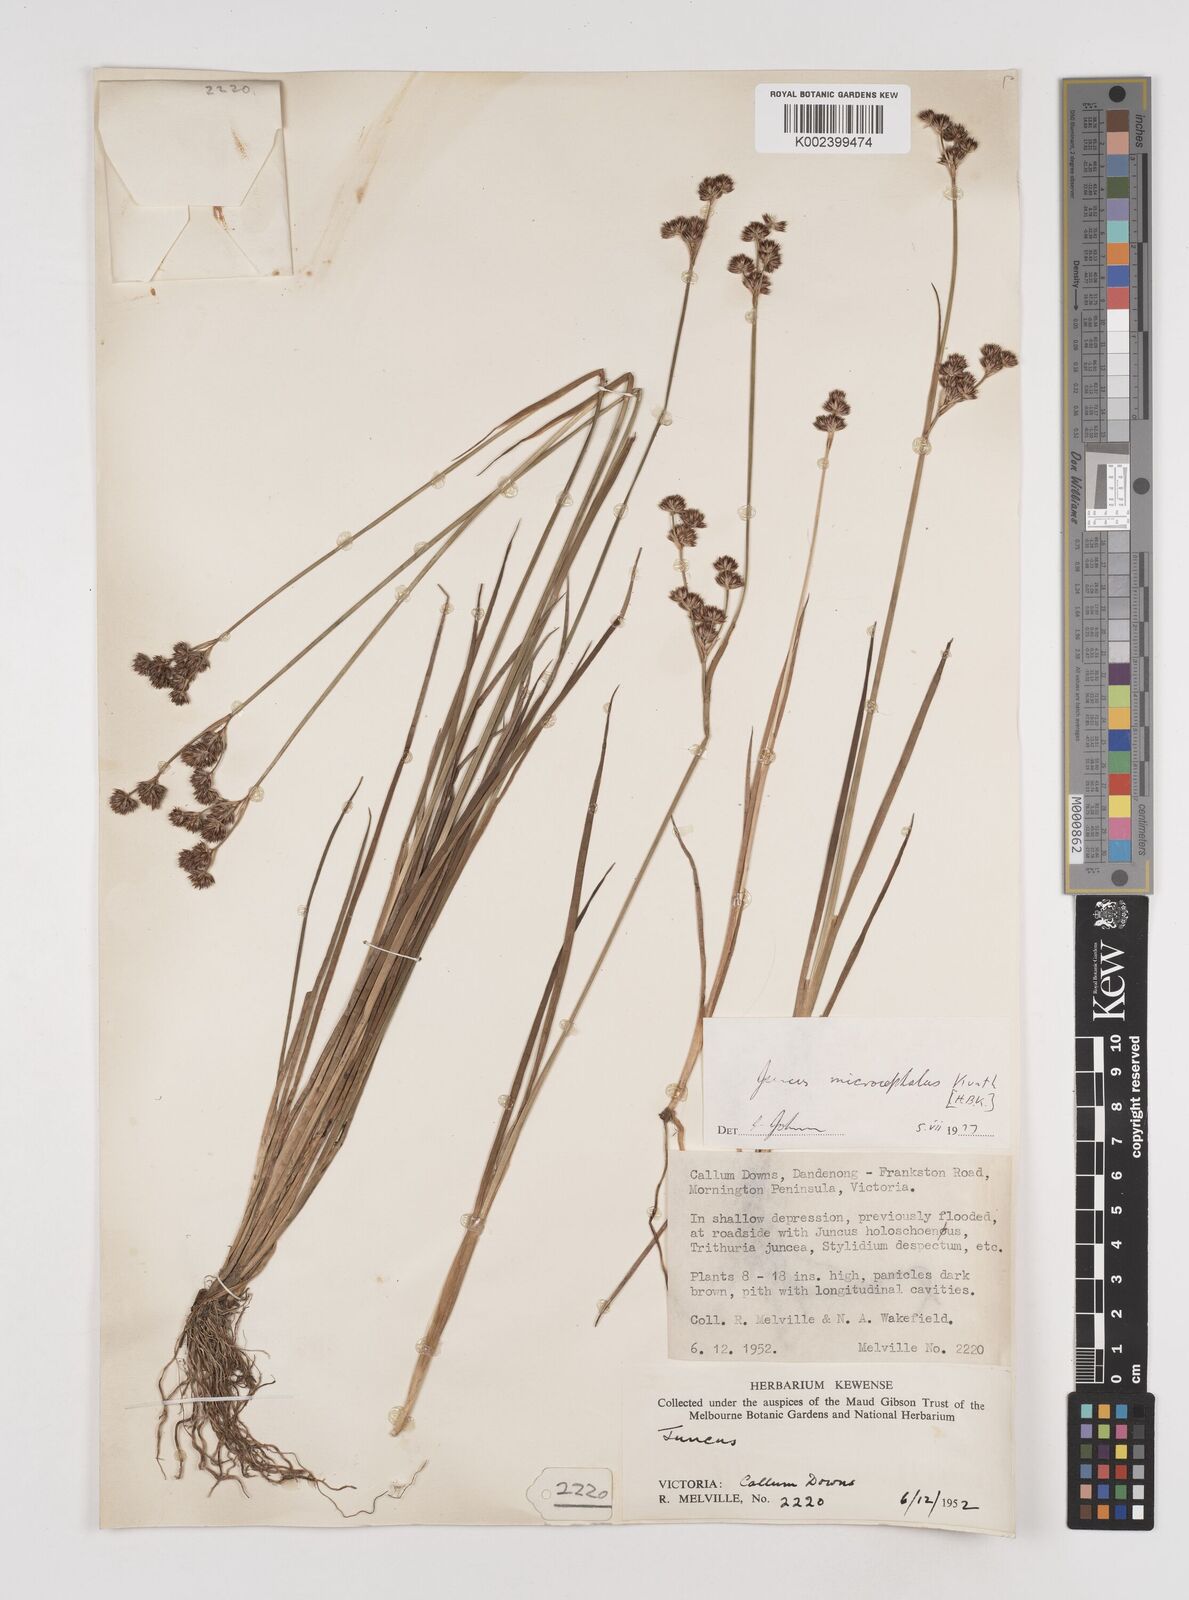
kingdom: Plantae
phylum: Tracheophyta
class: Liliopsida
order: Poales
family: Juncaceae
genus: Juncus
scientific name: Juncus
